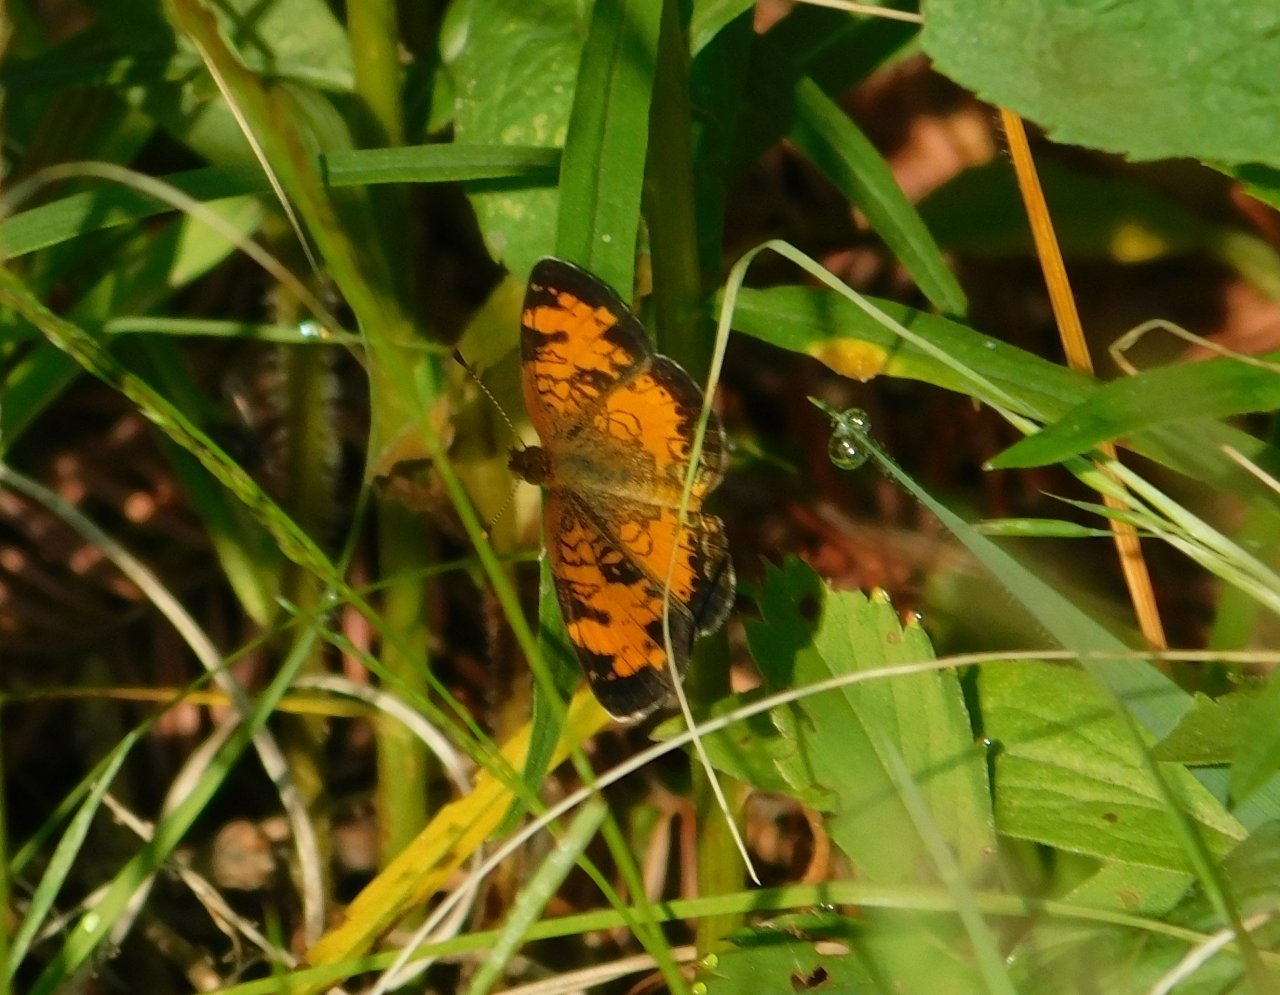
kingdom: Animalia
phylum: Arthropoda
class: Insecta
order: Lepidoptera
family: Nymphalidae
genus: Phyciodes
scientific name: Phyciodes tharos
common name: Northern Crescent
